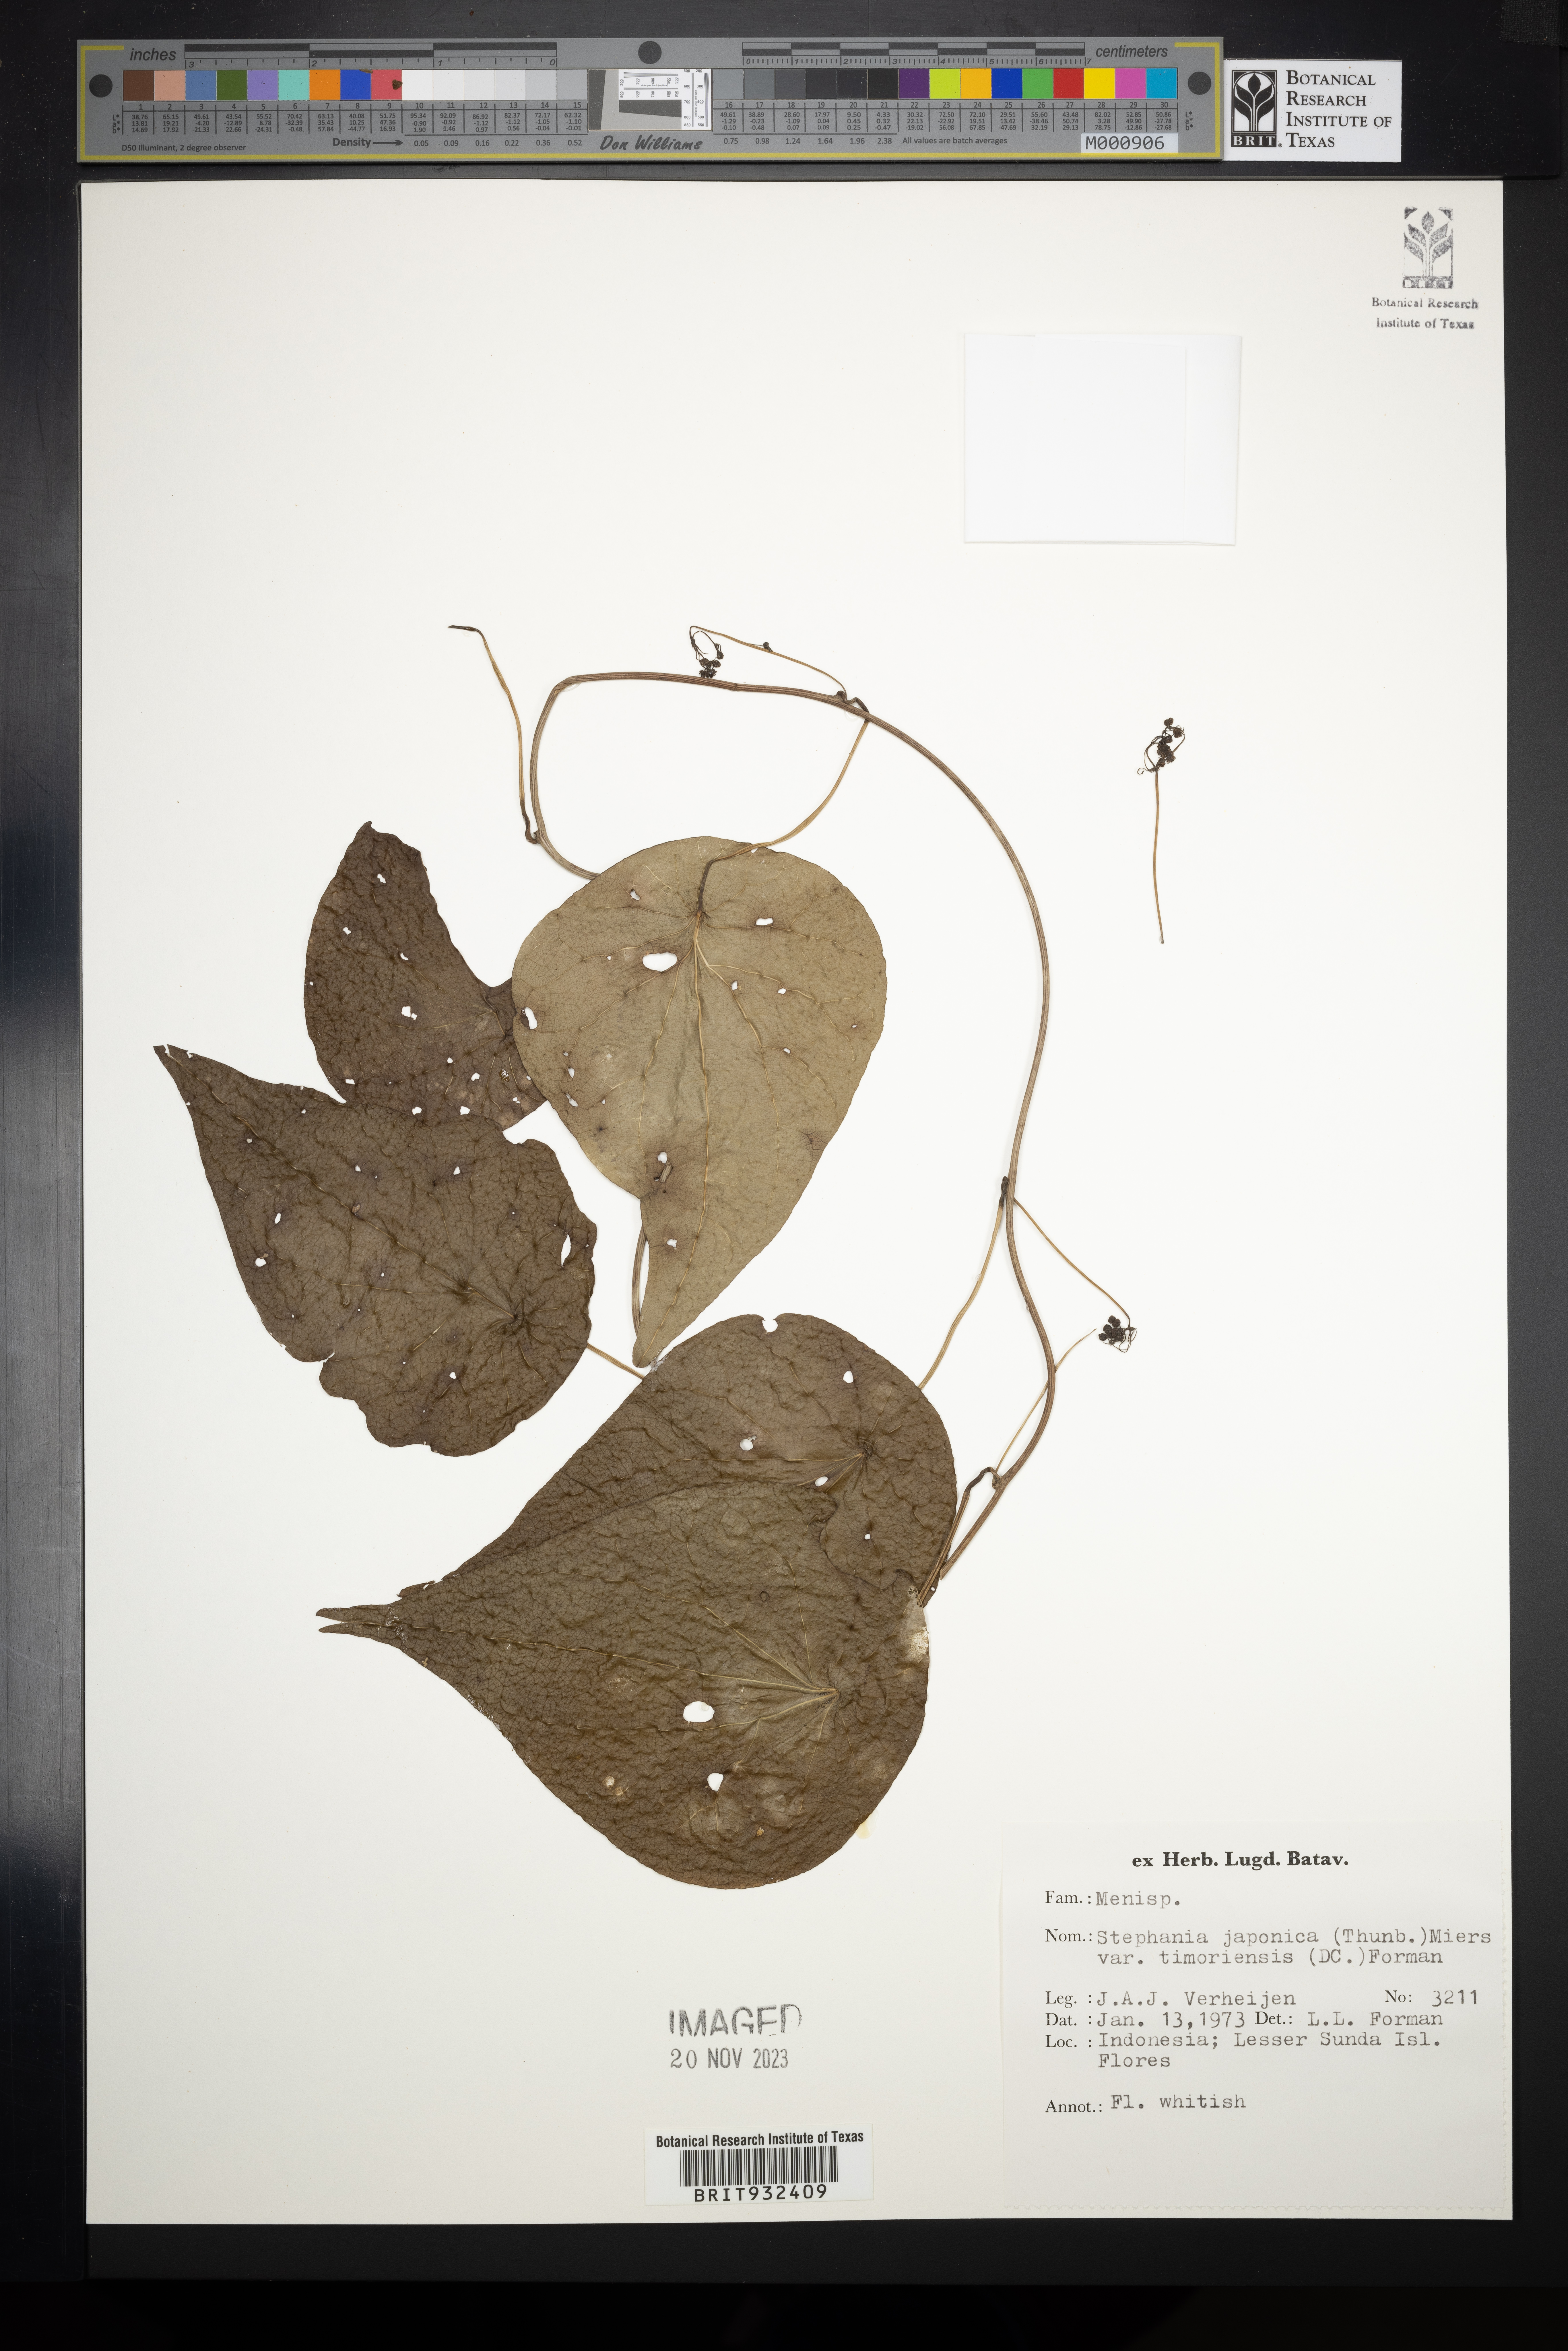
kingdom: Plantae
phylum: Tracheophyta
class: Magnoliopsida
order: Ranunculales
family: Menispermaceae
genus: Stephania
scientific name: Stephania japonica
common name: Snake vine
